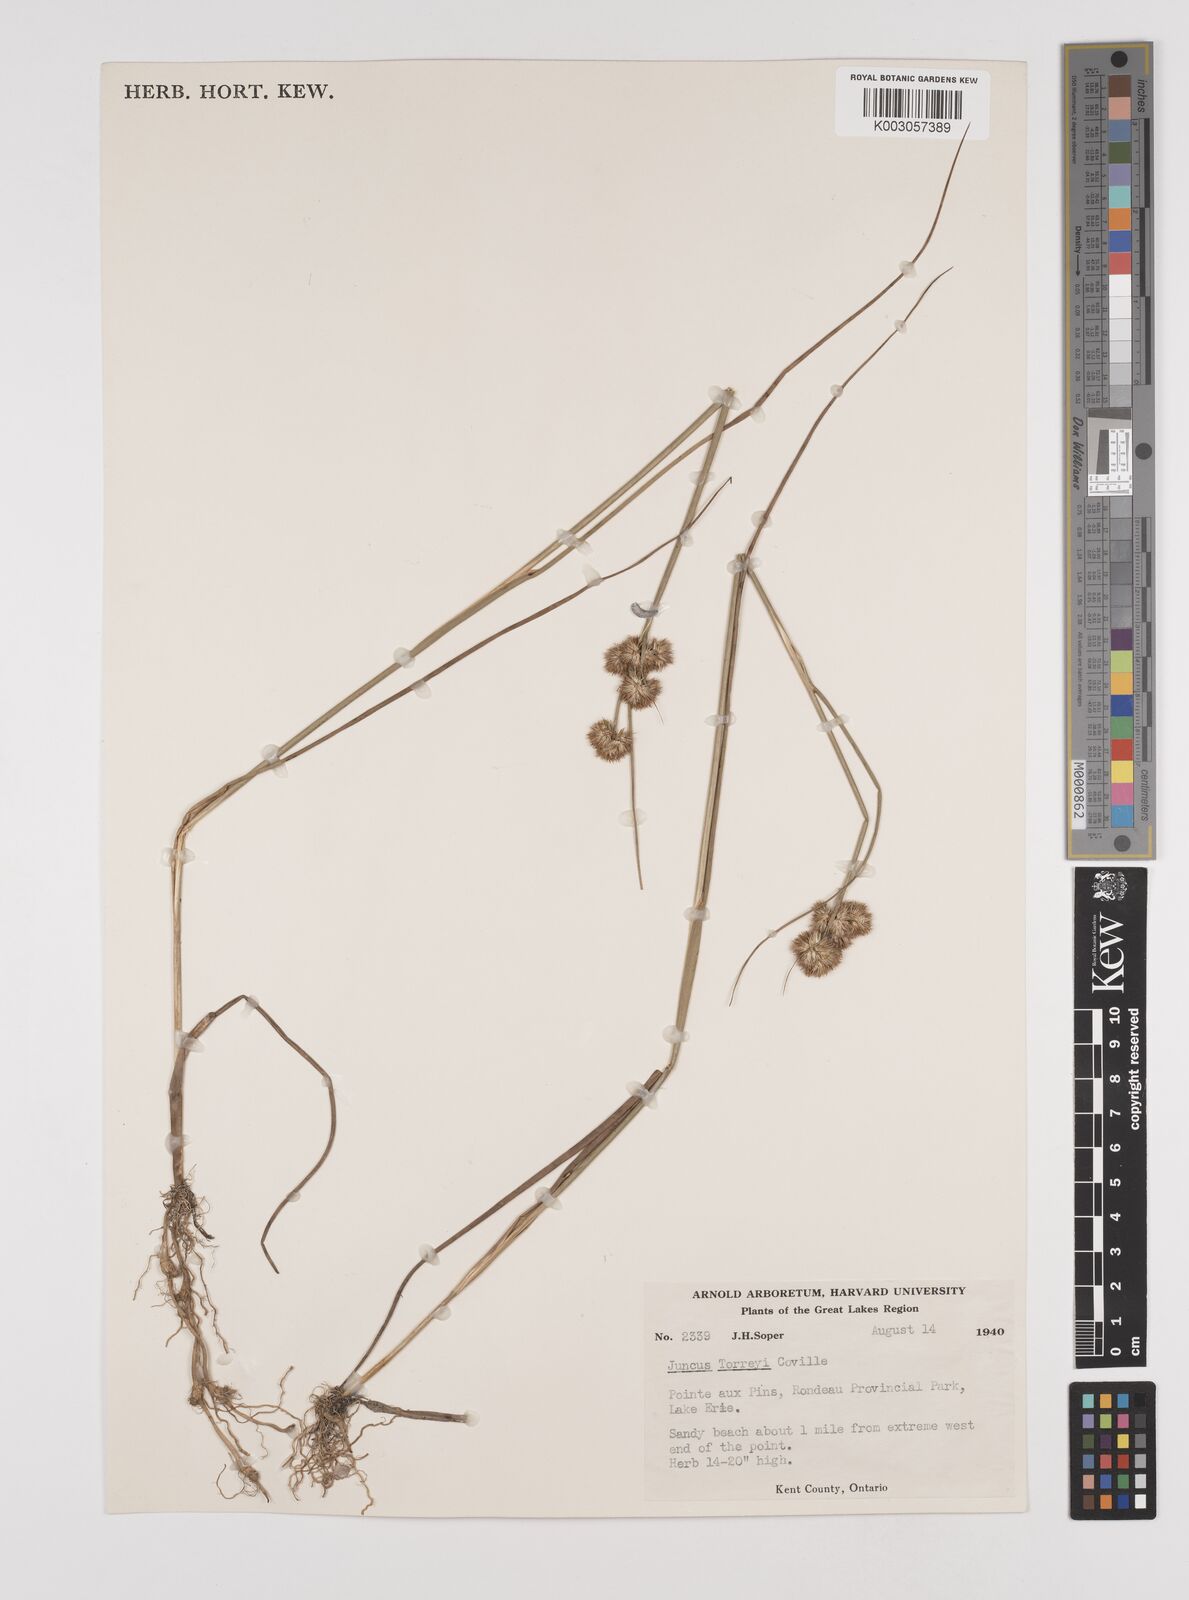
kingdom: Plantae
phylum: Tracheophyta
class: Liliopsida
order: Poales
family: Juncaceae
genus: Juncus
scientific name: Juncus torreyi
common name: Torrey's rush
